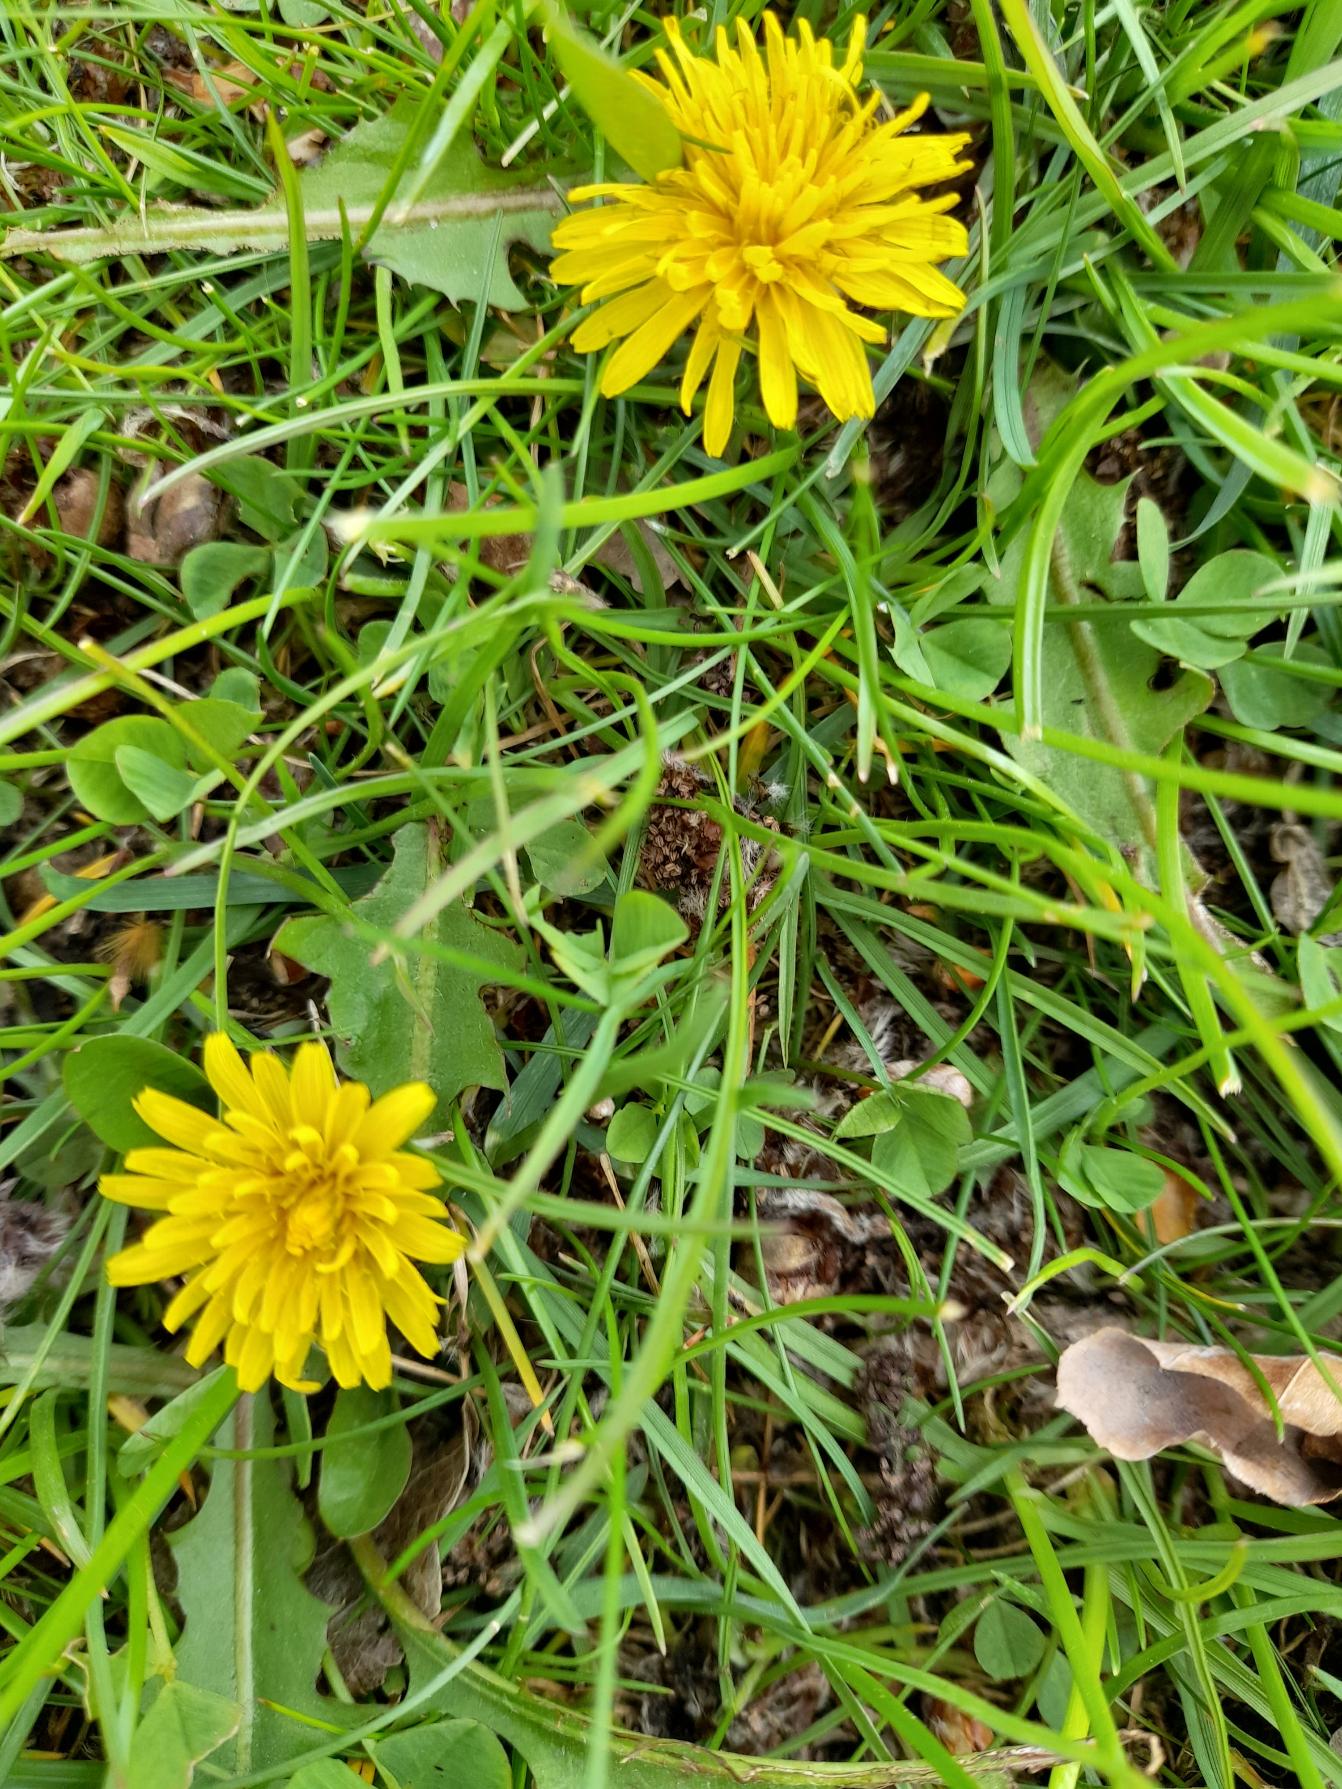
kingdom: Plantae
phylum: Tracheophyta
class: Magnoliopsida
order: Asterales
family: Asteraceae
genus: Taraxacum
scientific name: Taraxacum
